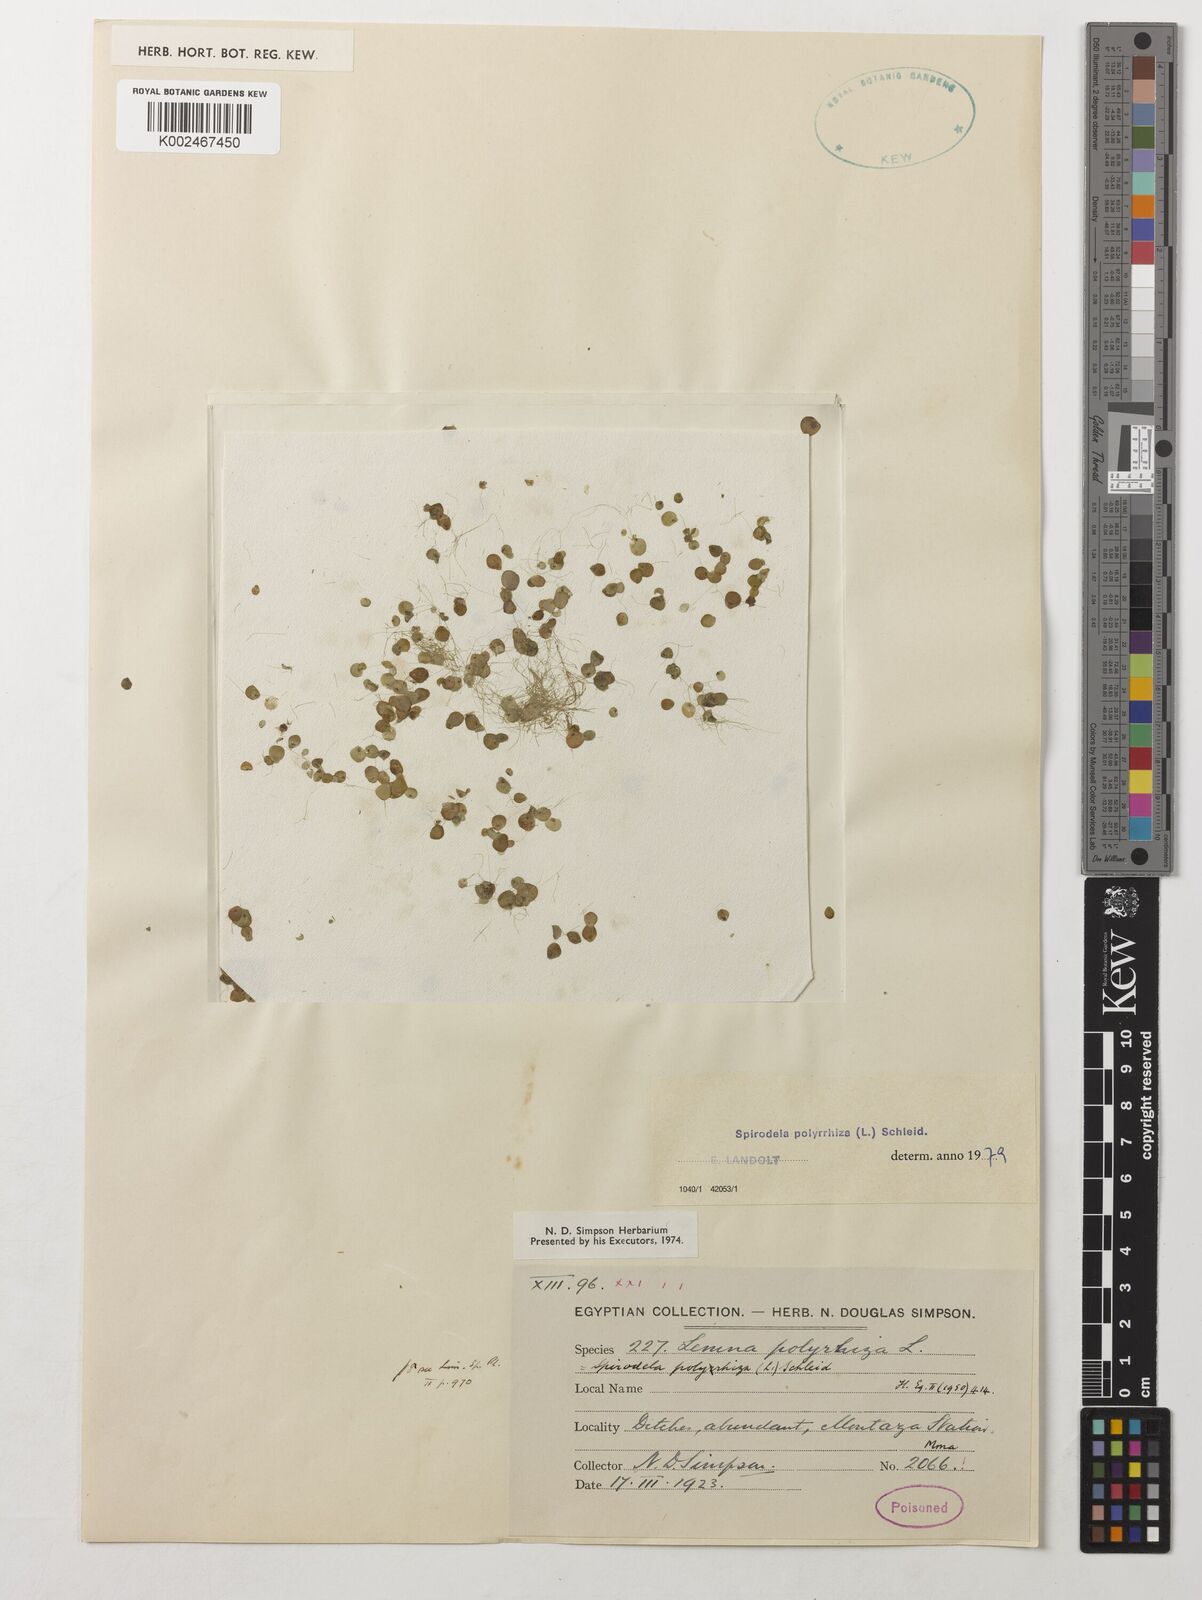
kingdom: Plantae
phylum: Tracheophyta
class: Liliopsida
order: Alismatales
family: Araceae
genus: Spirodela
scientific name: Spirodela polyrhiza
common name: Great duckweed
